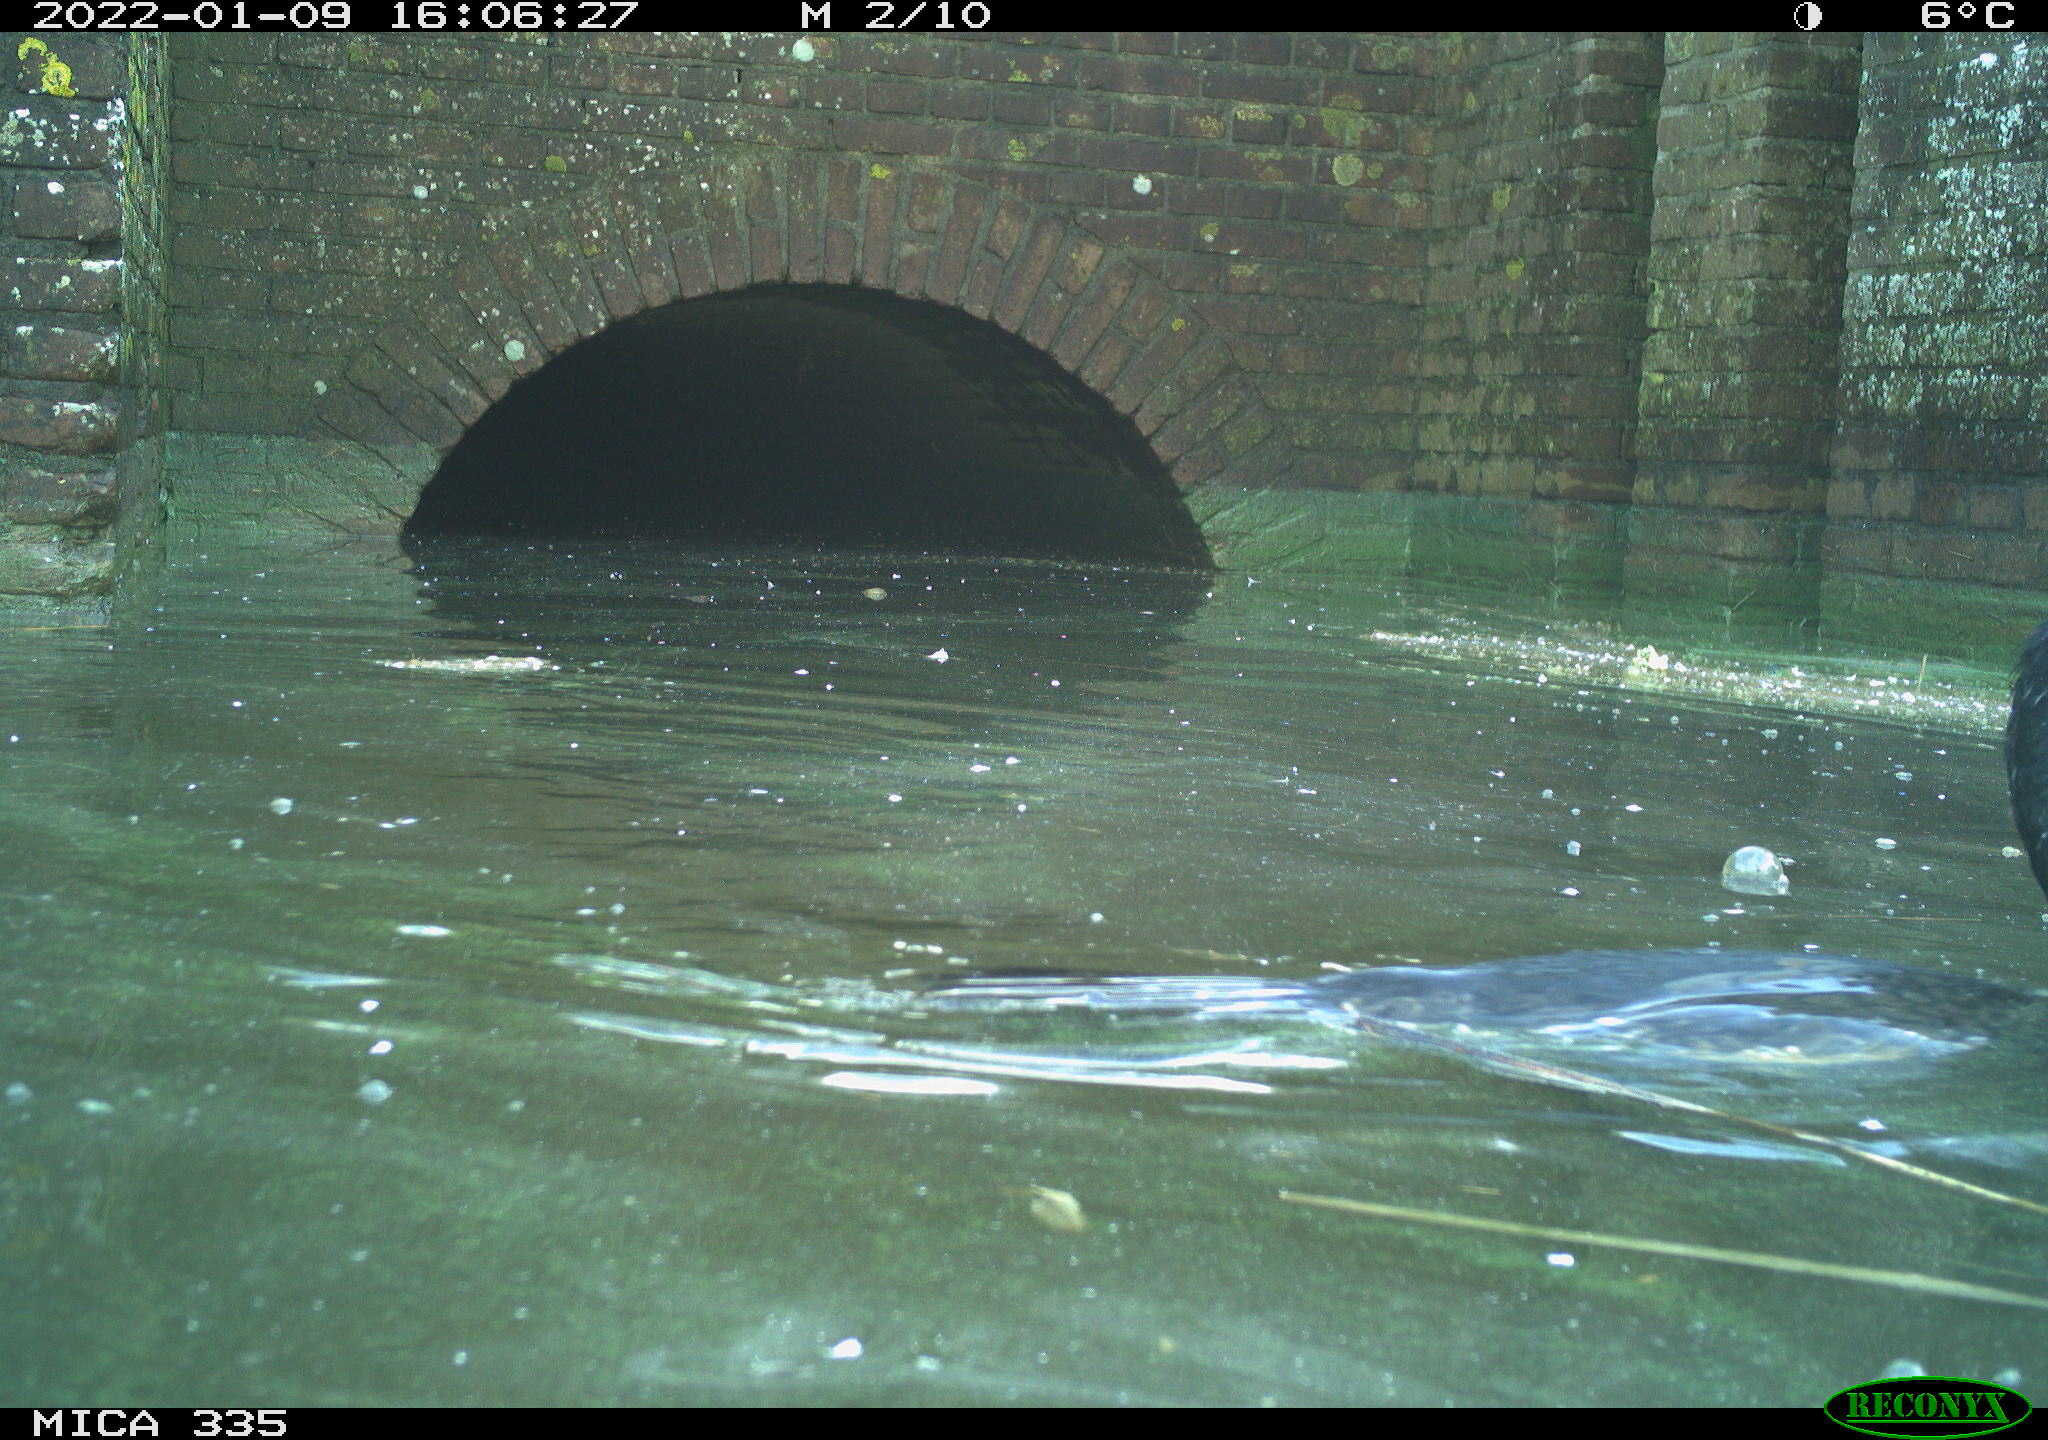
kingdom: Animalia
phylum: Chordata
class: Aves
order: Suliformes
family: Phalacrocoracidae
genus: Phalacrocorax
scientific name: Phalacrocorax carbo
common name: Great cormorant
